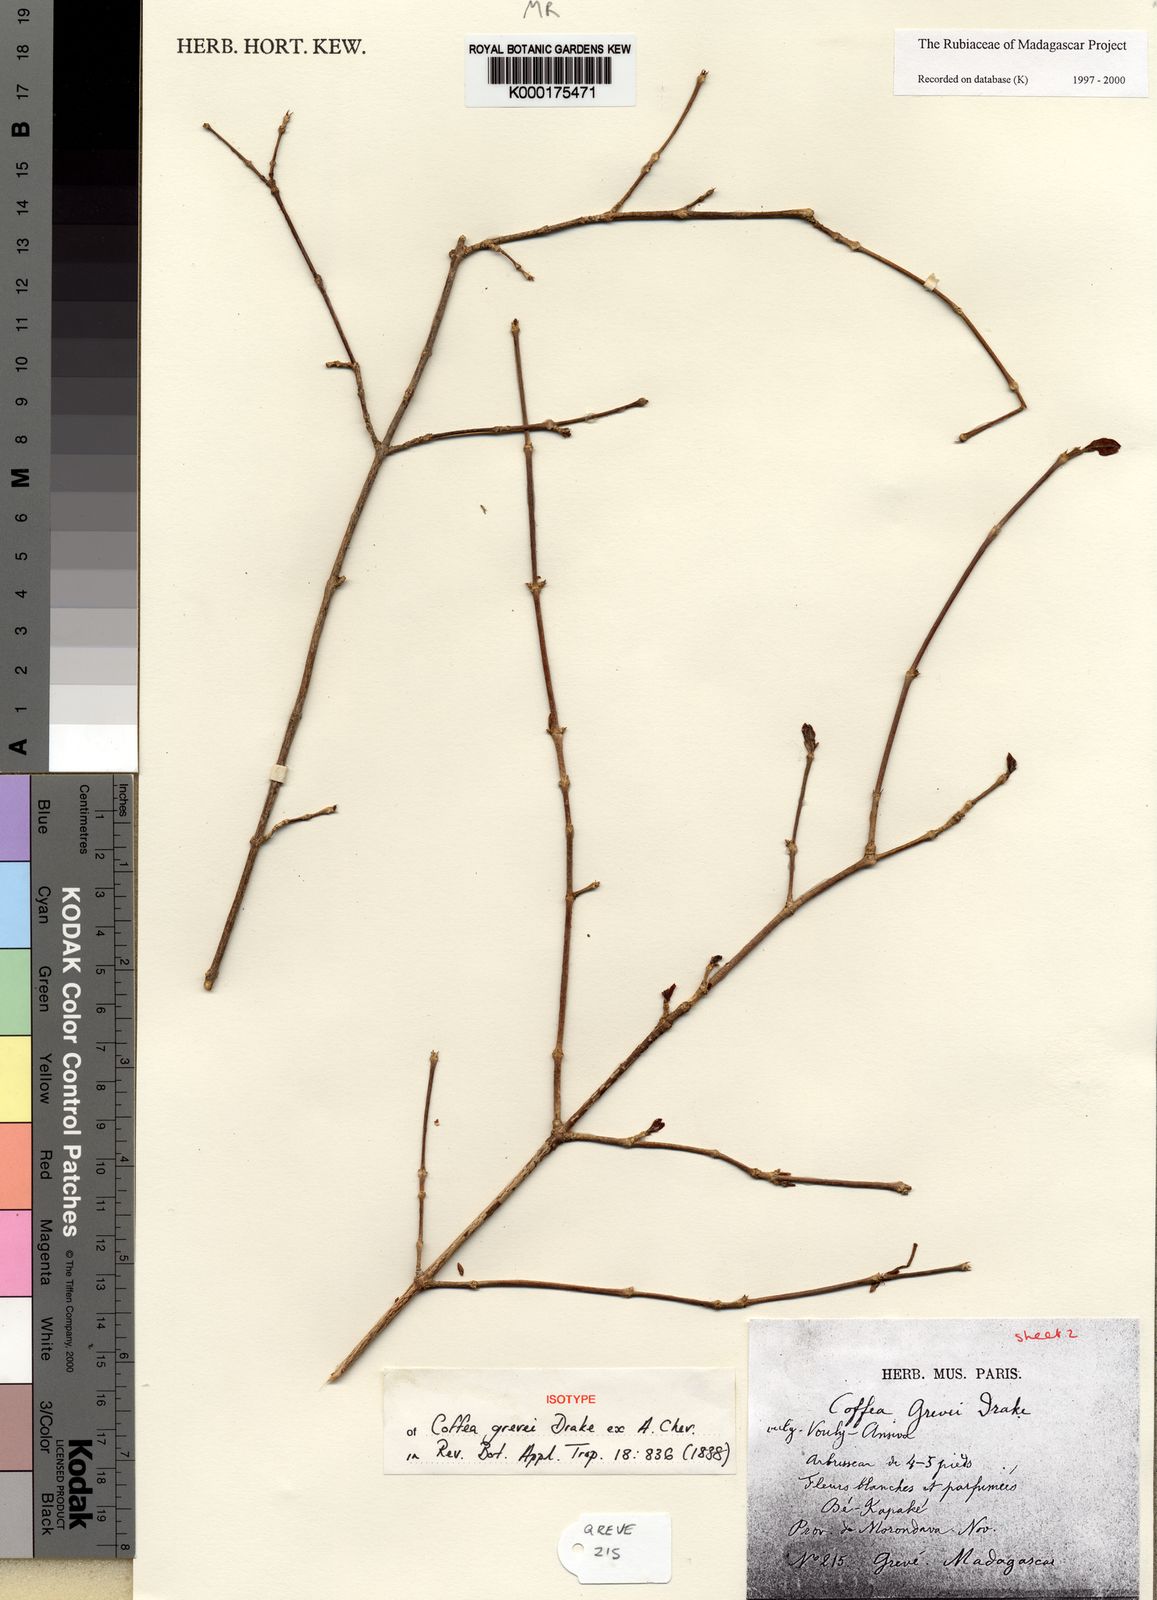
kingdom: Plantae
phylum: Tracheophyta
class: Magnoliopsida
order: Gentianales
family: Rubiaceae
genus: Coffea
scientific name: Coffea grevei
